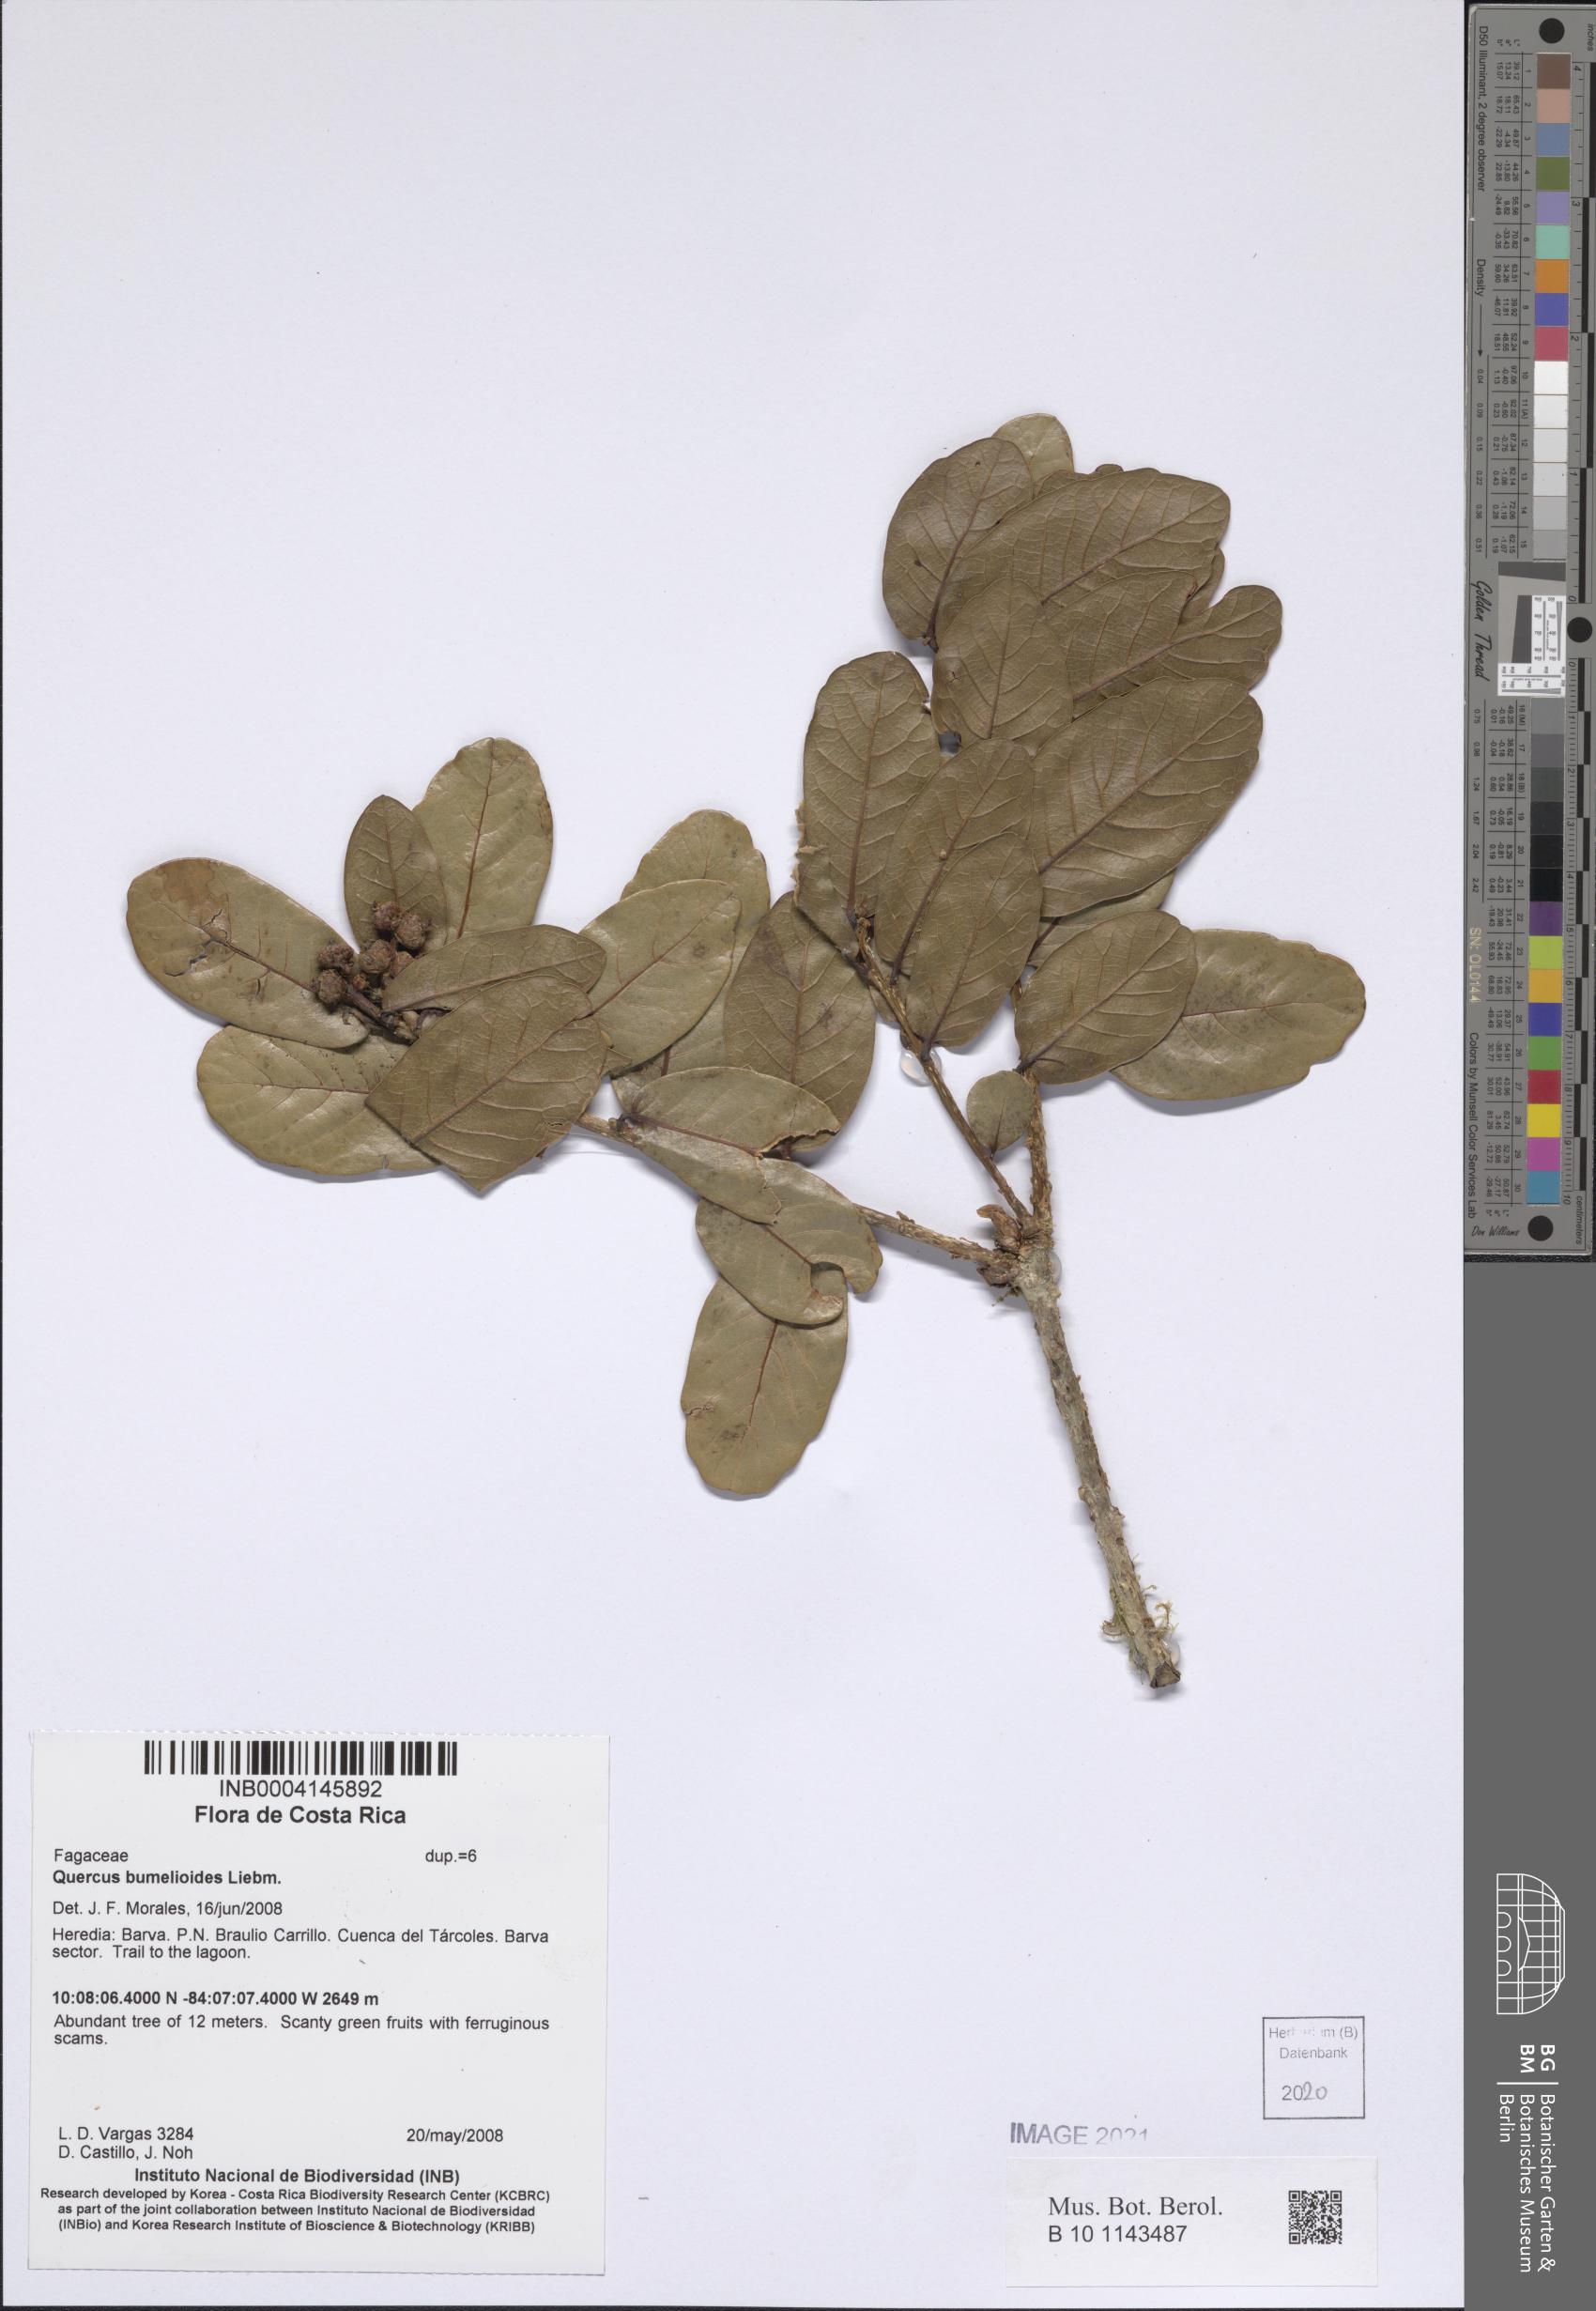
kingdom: Plantae
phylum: Tracheophyta
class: Magnoliopsida
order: Fagales
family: Fagaceae
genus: Quercus
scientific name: Quercus sapotifolia
